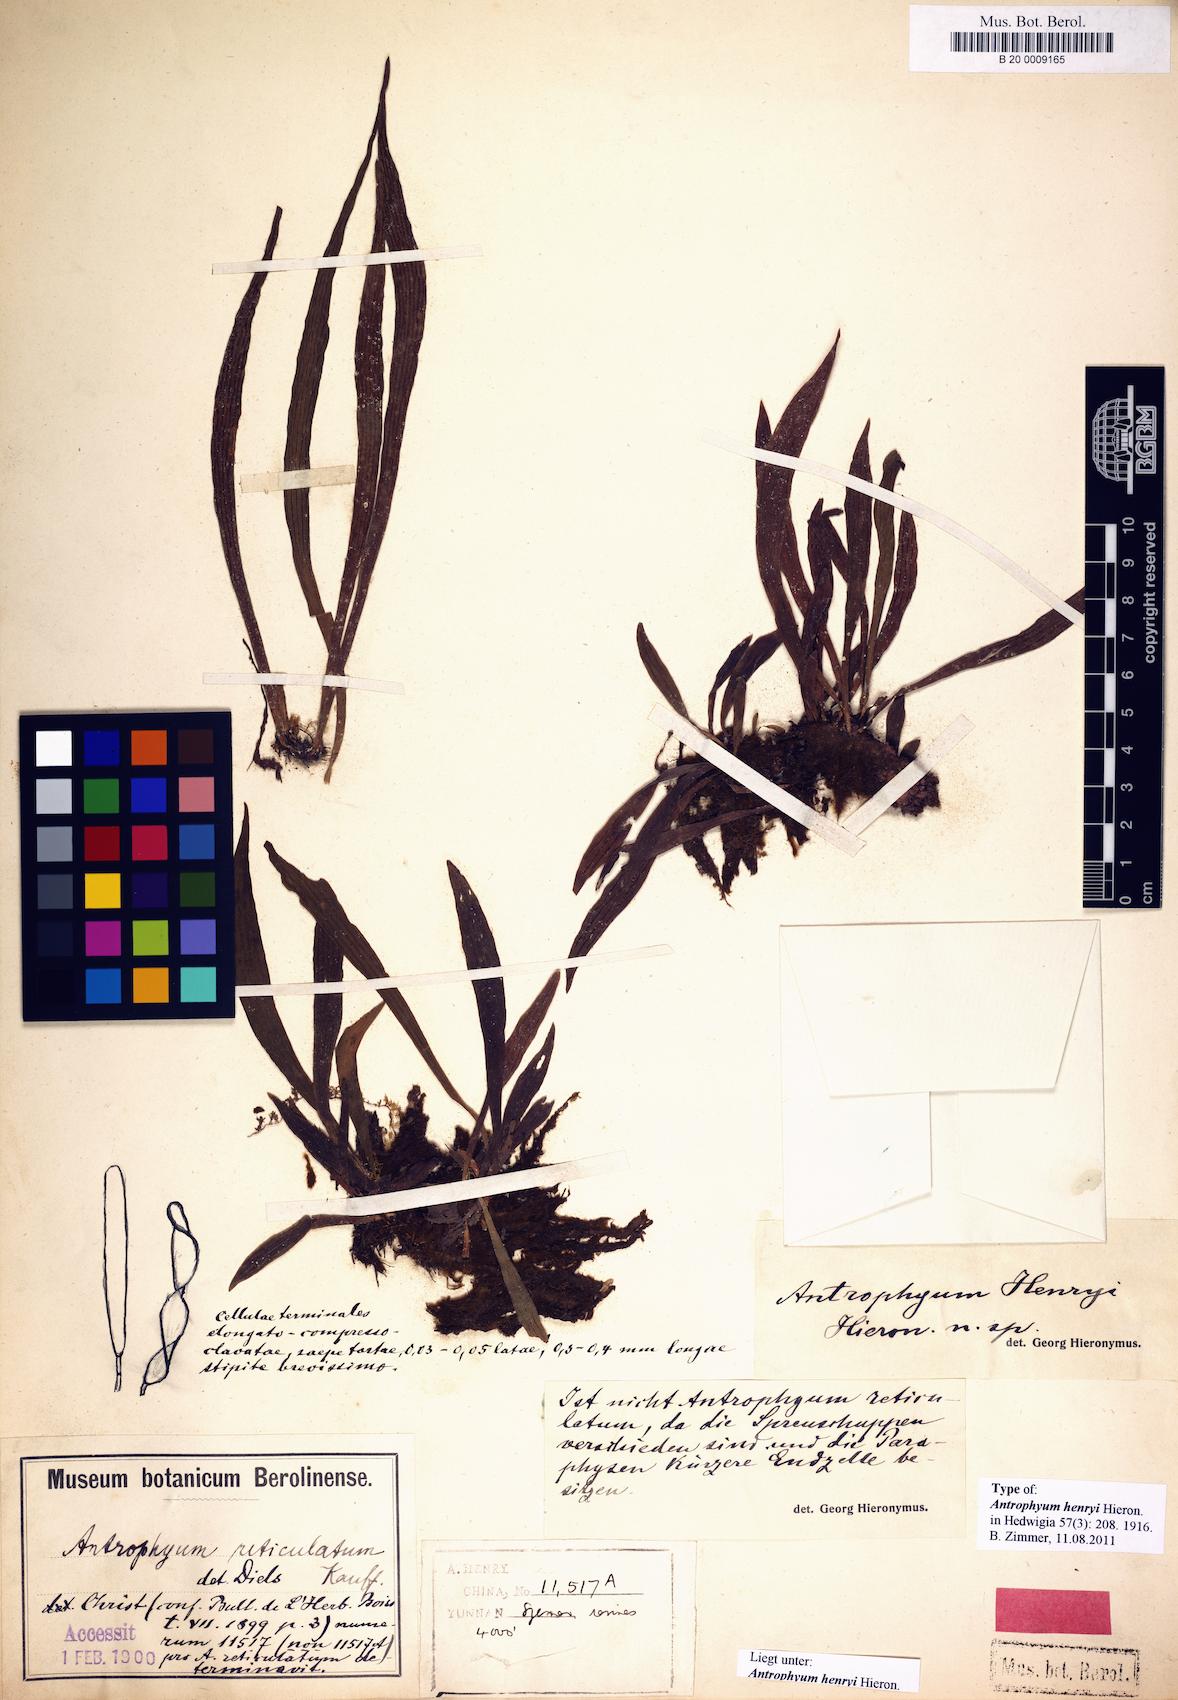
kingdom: Plantae
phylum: Tracheophyta
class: Polypodiopsida
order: Polypodiales
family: Pteridaceae
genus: Antrophyum
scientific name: Antrophyum henryi
